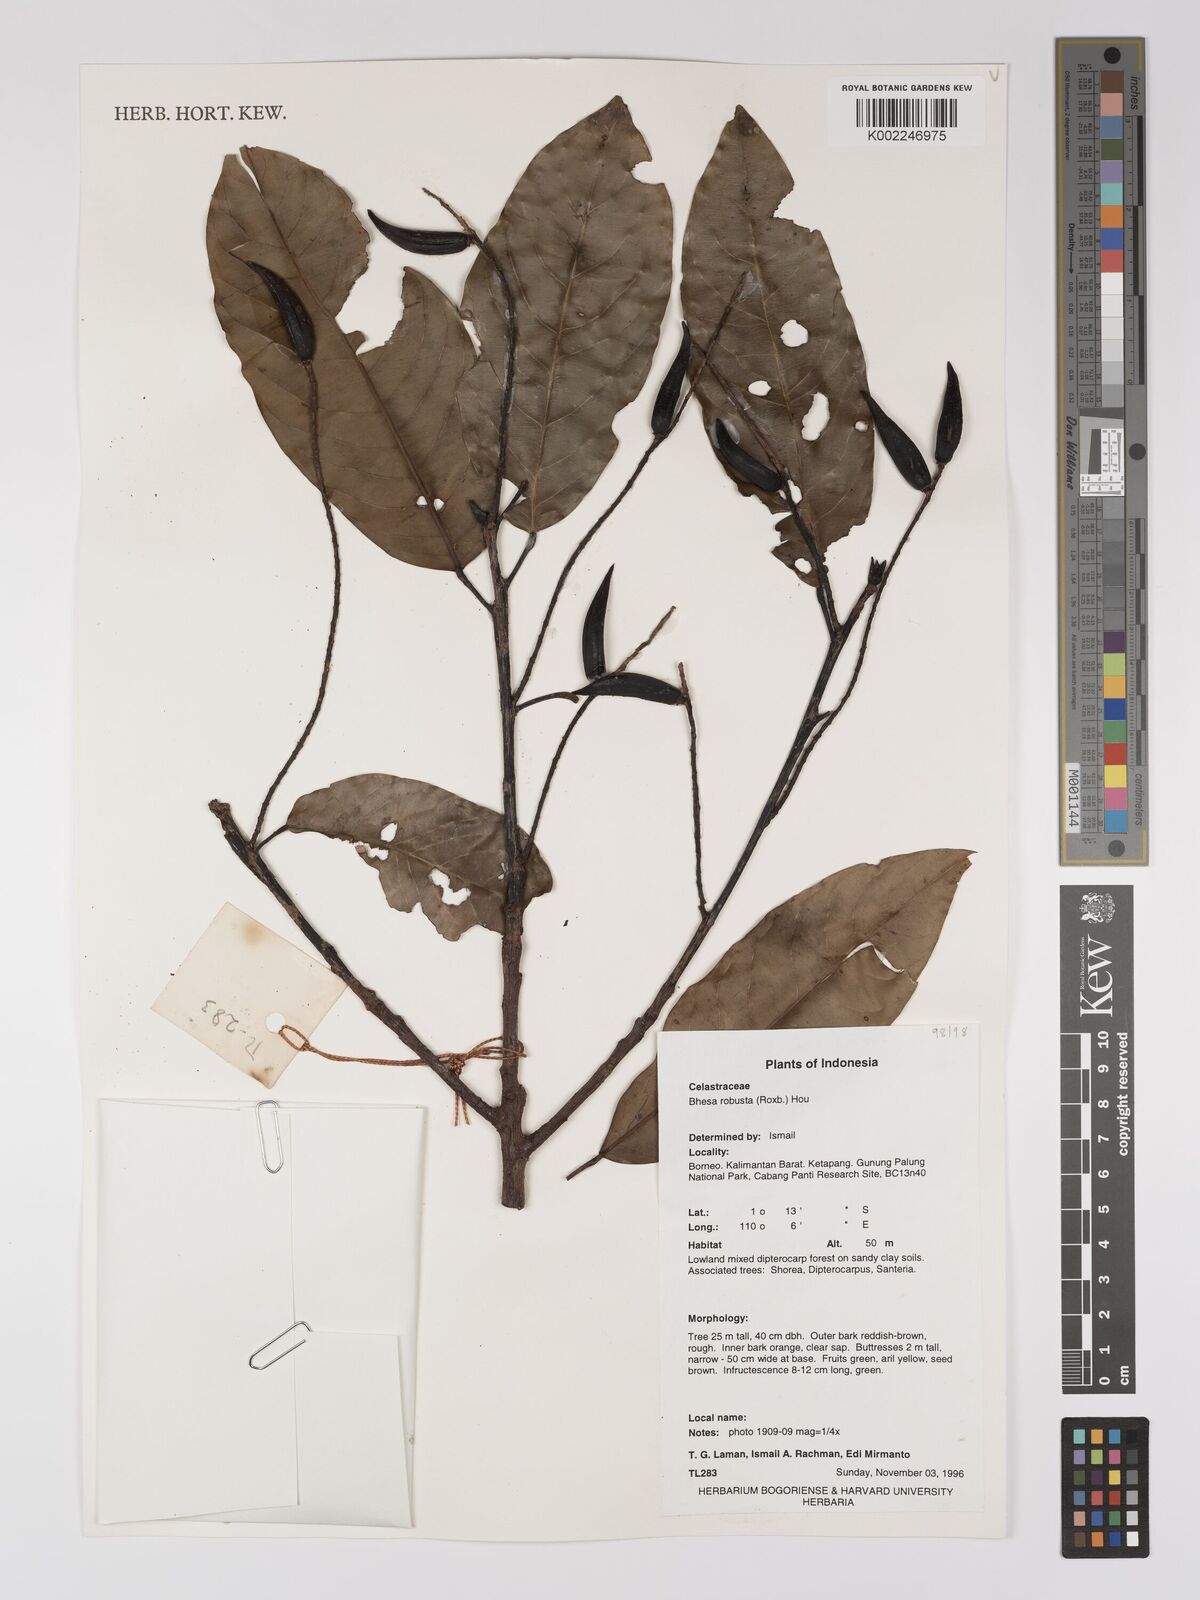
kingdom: Plantae
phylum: Tracheophyta
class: Magnoliopsida
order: Malpighiales
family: Centroplacaceae
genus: Bhesa
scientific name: Bhesa robusta
